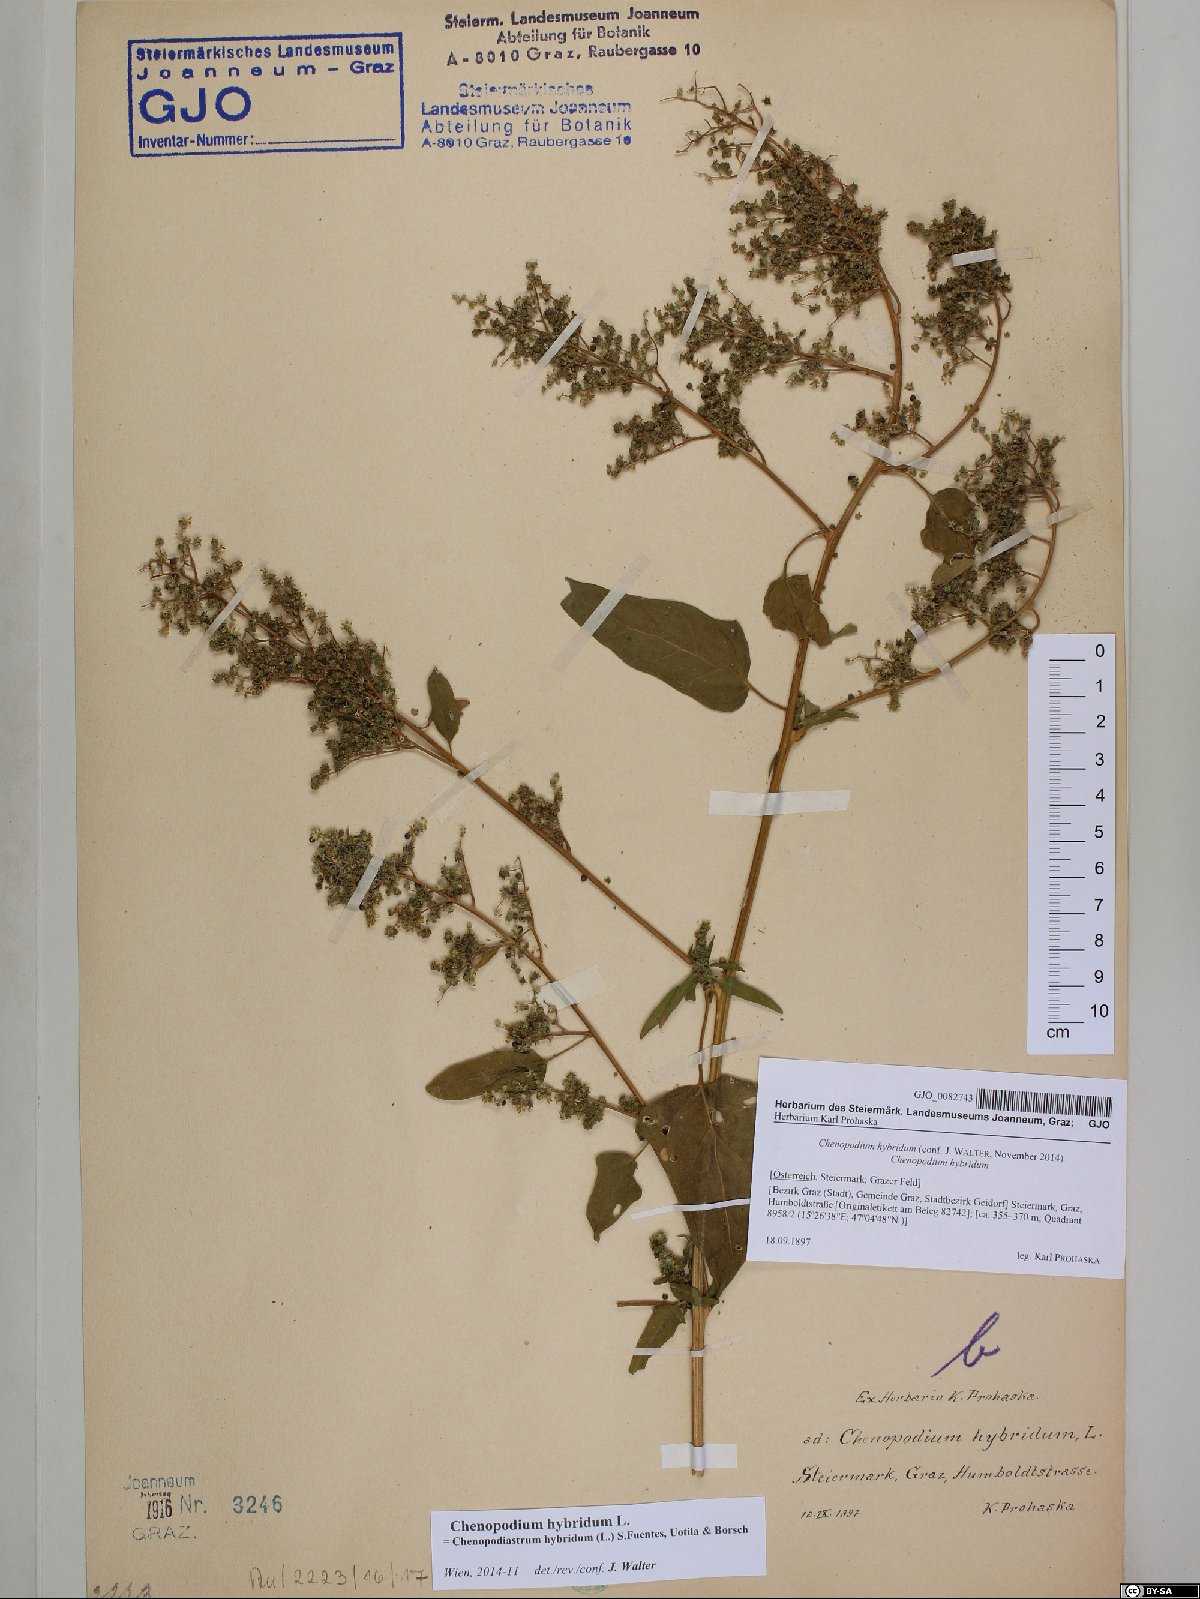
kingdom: Plantae
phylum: Tracheophyta
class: Magnoliopsida
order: Caryophyllales
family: Amaranthaceae
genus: Chenopodiastrum
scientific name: Chenopodiastrum hybridum
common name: Mapleleaf goosefoot
